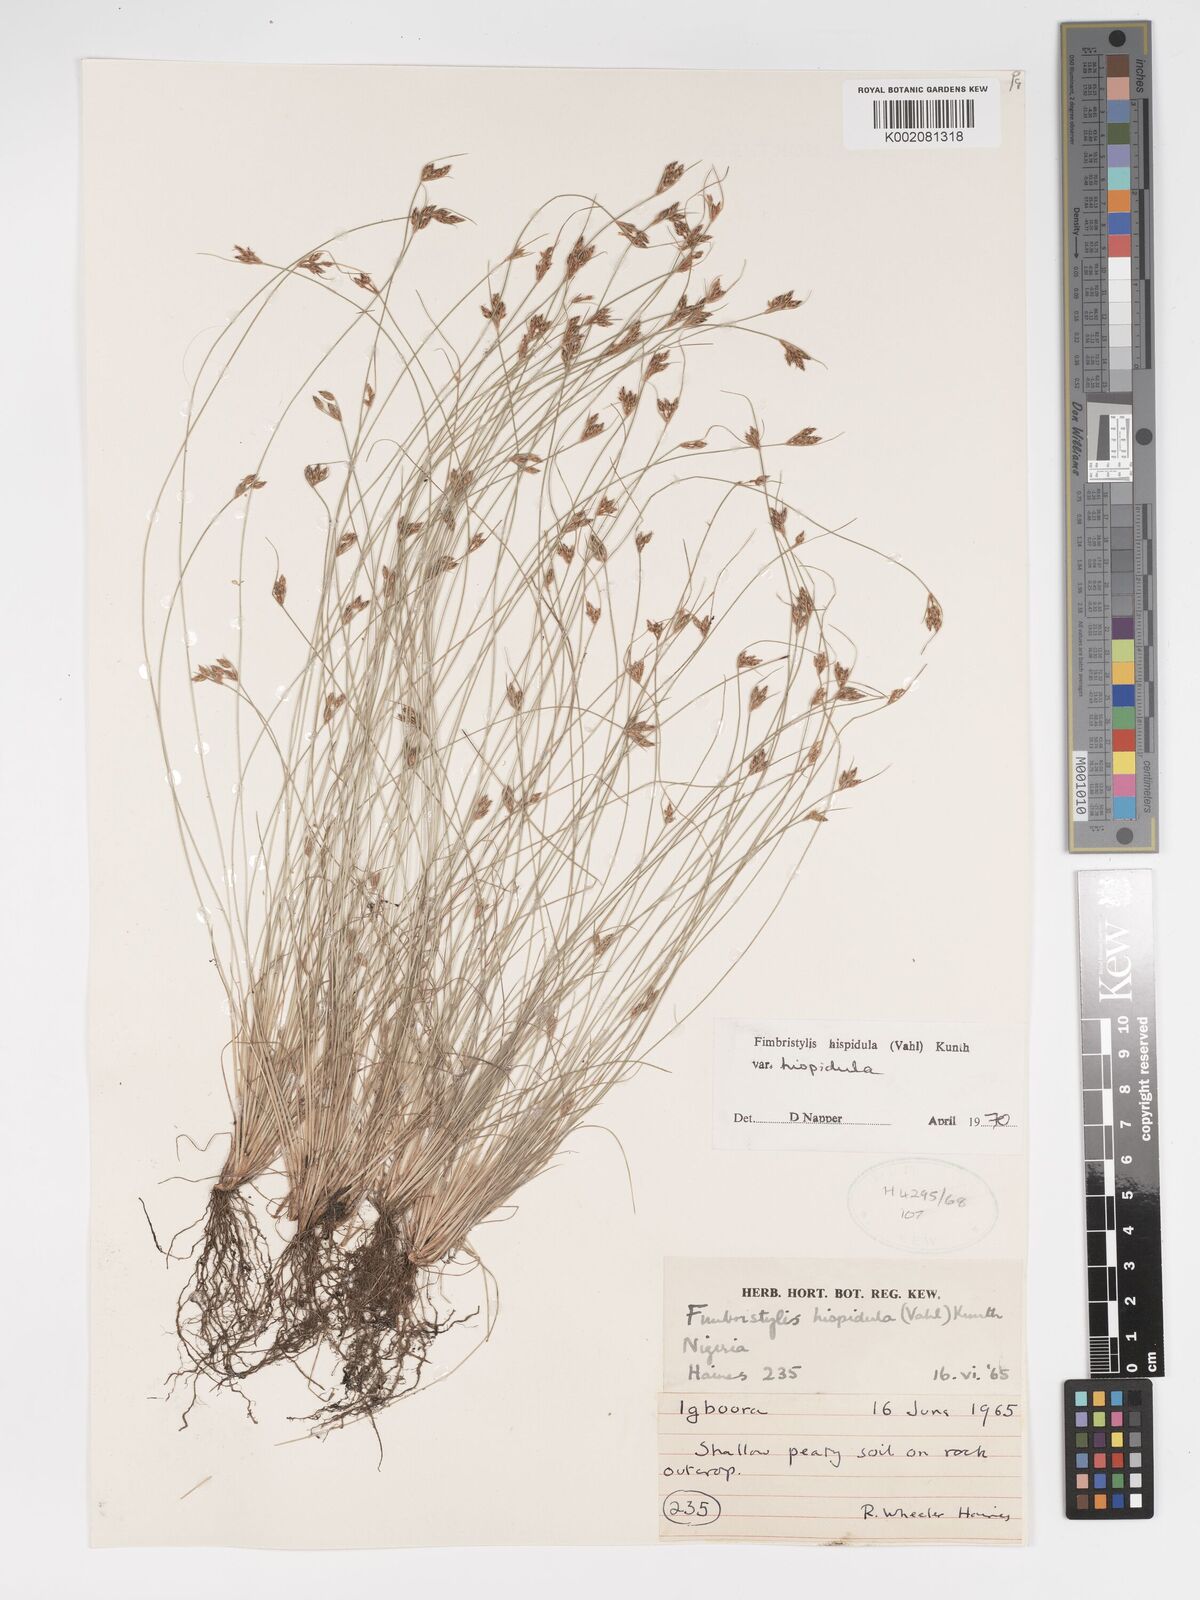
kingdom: Plantae
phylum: Tracheophyta
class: Liliopsida
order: Poales
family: Cyperaceae
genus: Bulbostylis
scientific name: Bulbostylis hispidula
